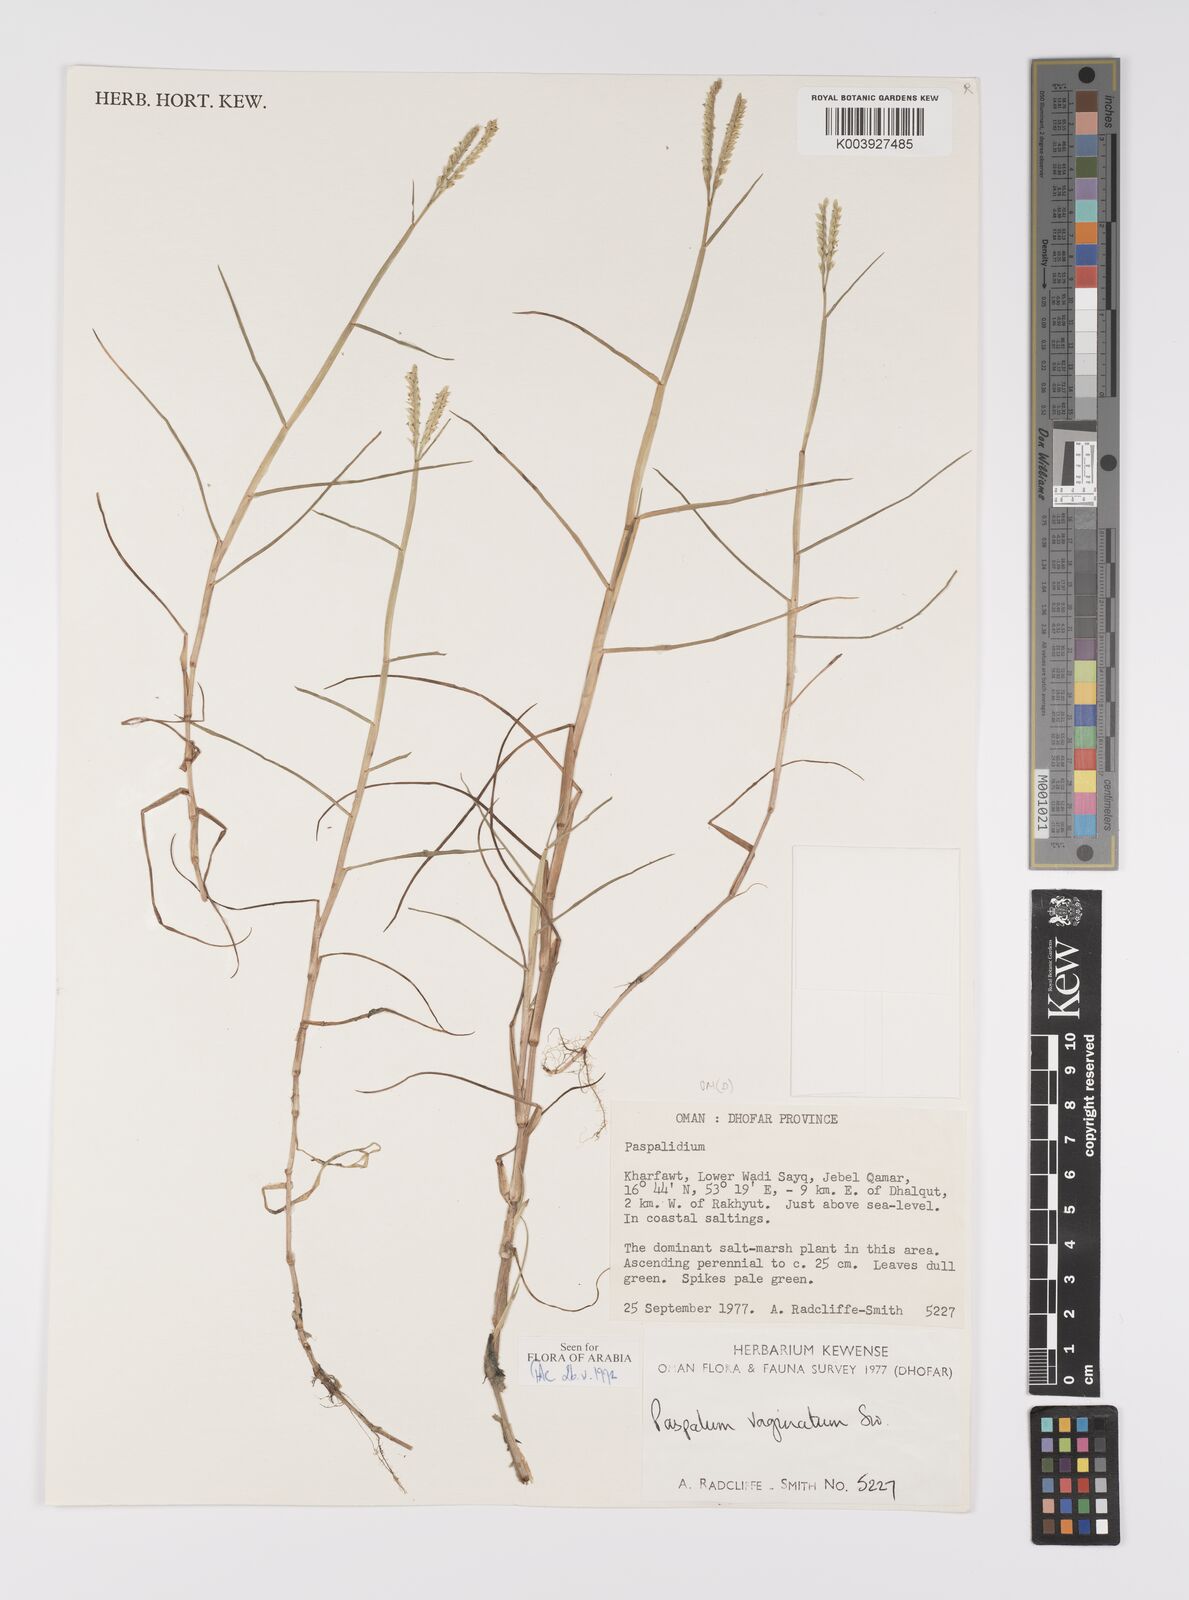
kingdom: Plantae
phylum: Tracheophyta
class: Liliopsida
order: Poales
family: Poaceae
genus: Paspalum
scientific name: Paspalum vaginatum
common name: Seashore paspalum
